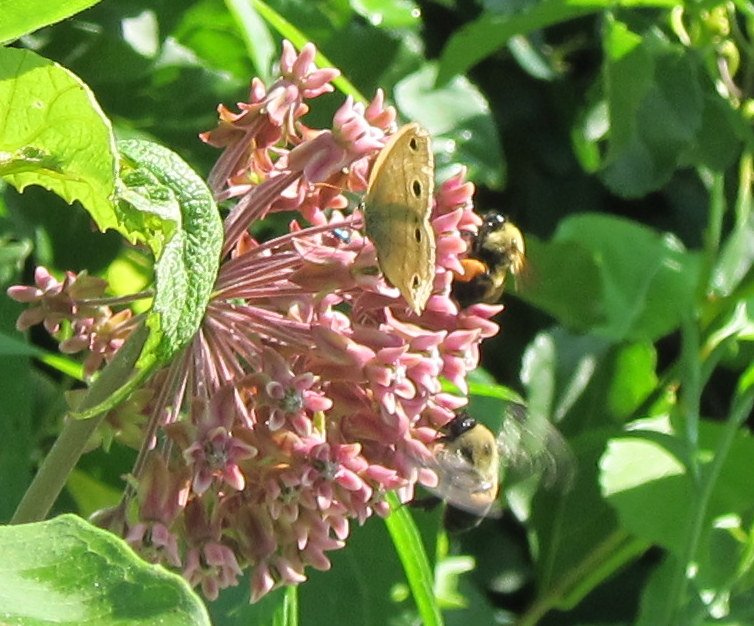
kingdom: Animalia
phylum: Arthropoda
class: Insecta
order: Lepidoptera
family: Nymphalidae
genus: Euptychia
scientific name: Euptychia cymela
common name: Little Wood Satyr
